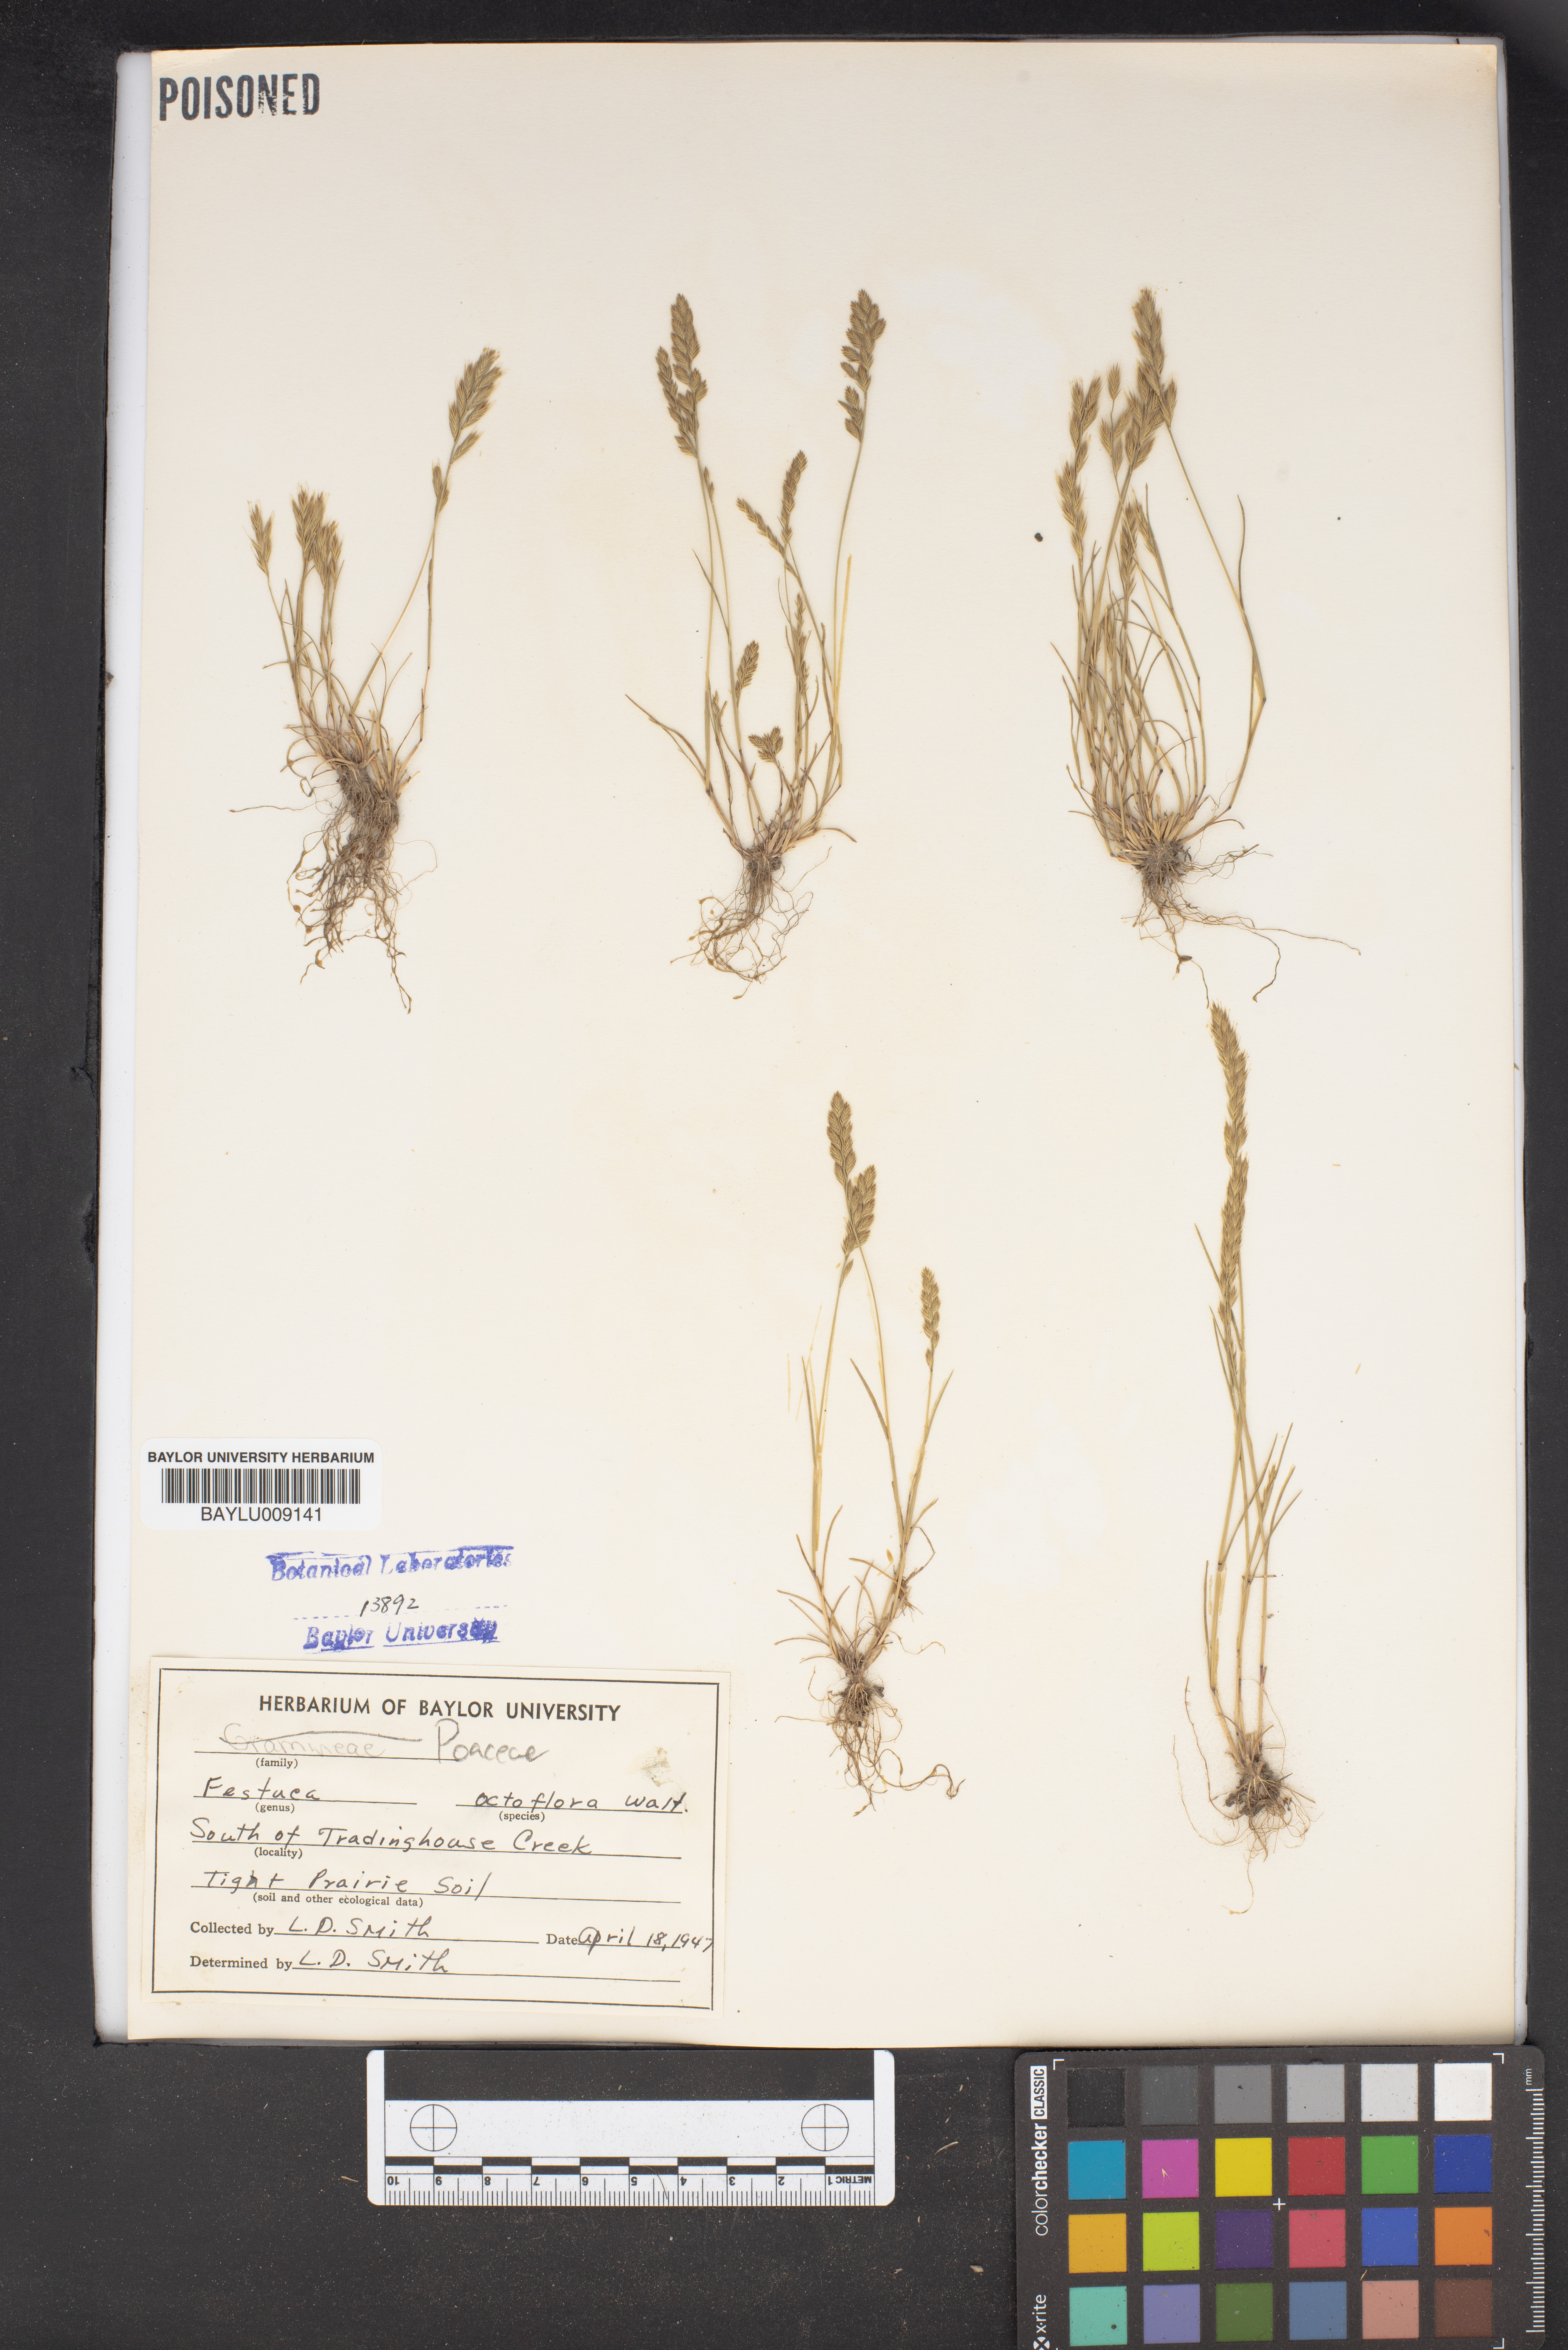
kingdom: Plantae
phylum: Tracheophyta
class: Liliopsida
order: Poales
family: Poaceae
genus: Festuca
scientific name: Festuca octoflora
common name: Sixweeks grass
